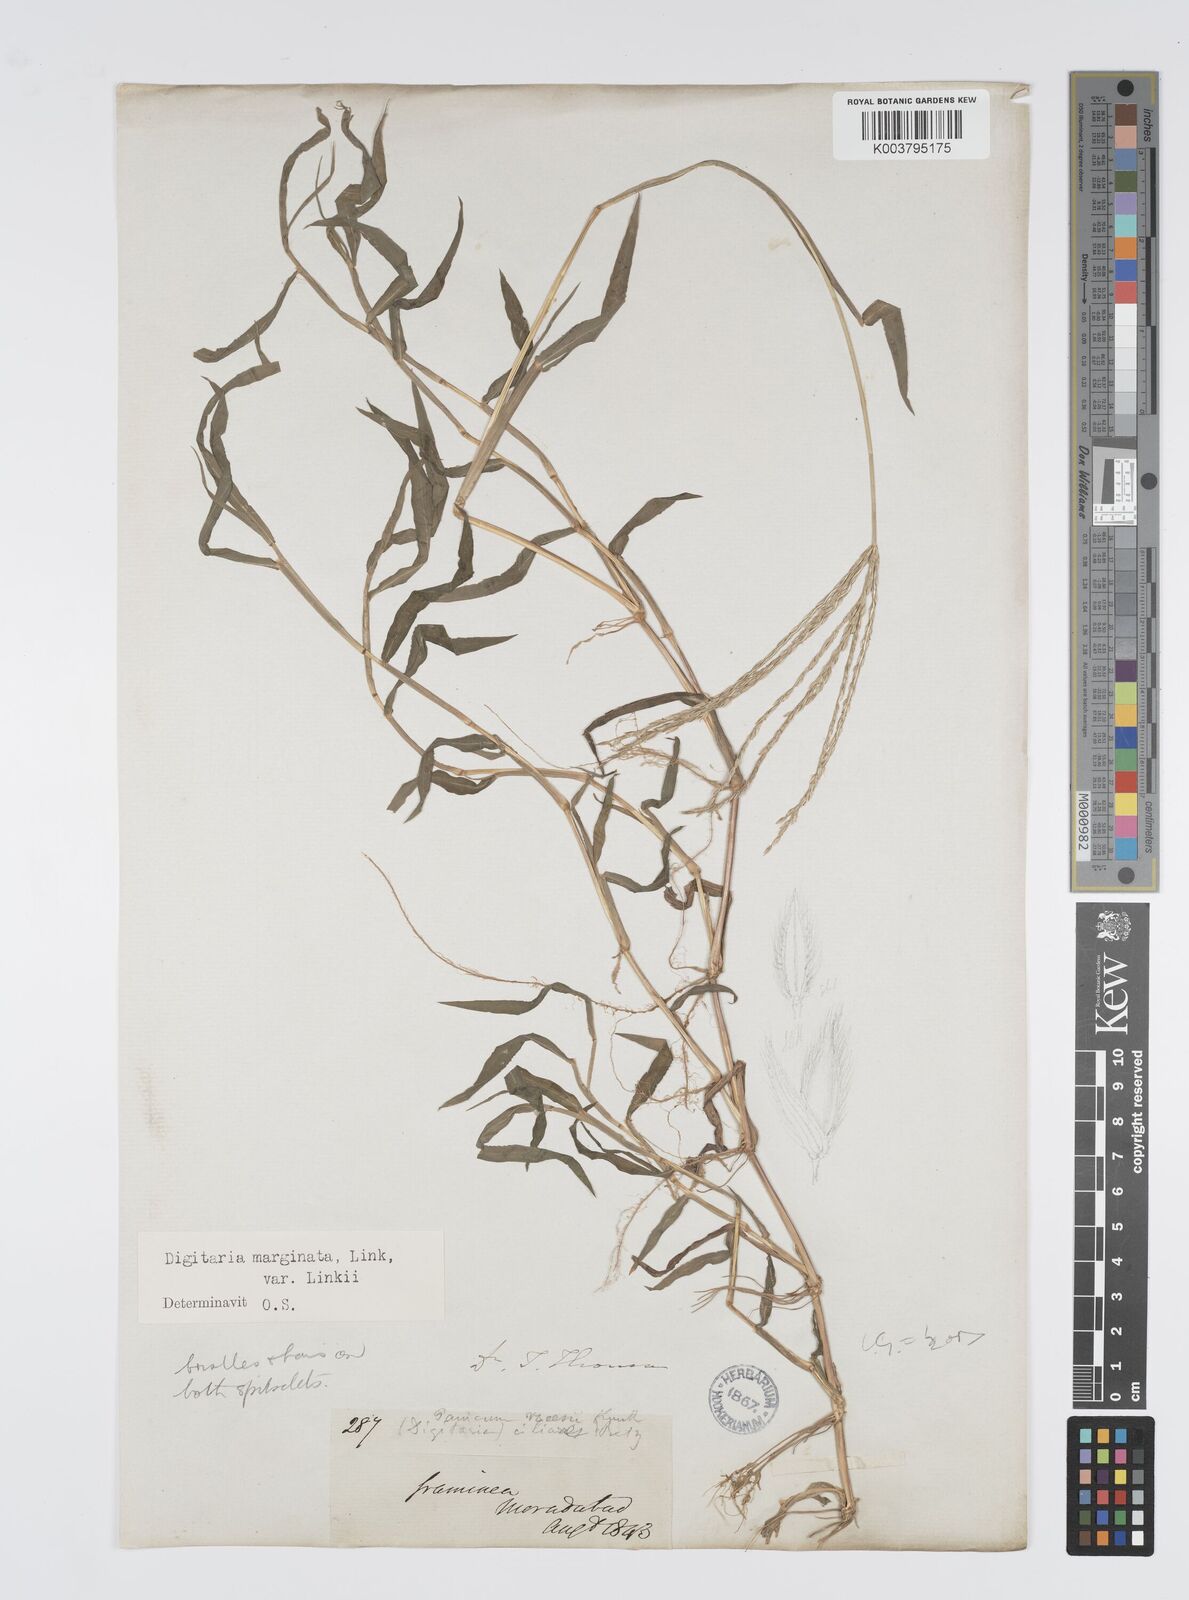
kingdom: Plantae
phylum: Tracheophyta
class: Liliopsida
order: Poales
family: Poaceae
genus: Digitaria
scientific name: Digitaria ciliaris
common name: Tropical finger-grass
